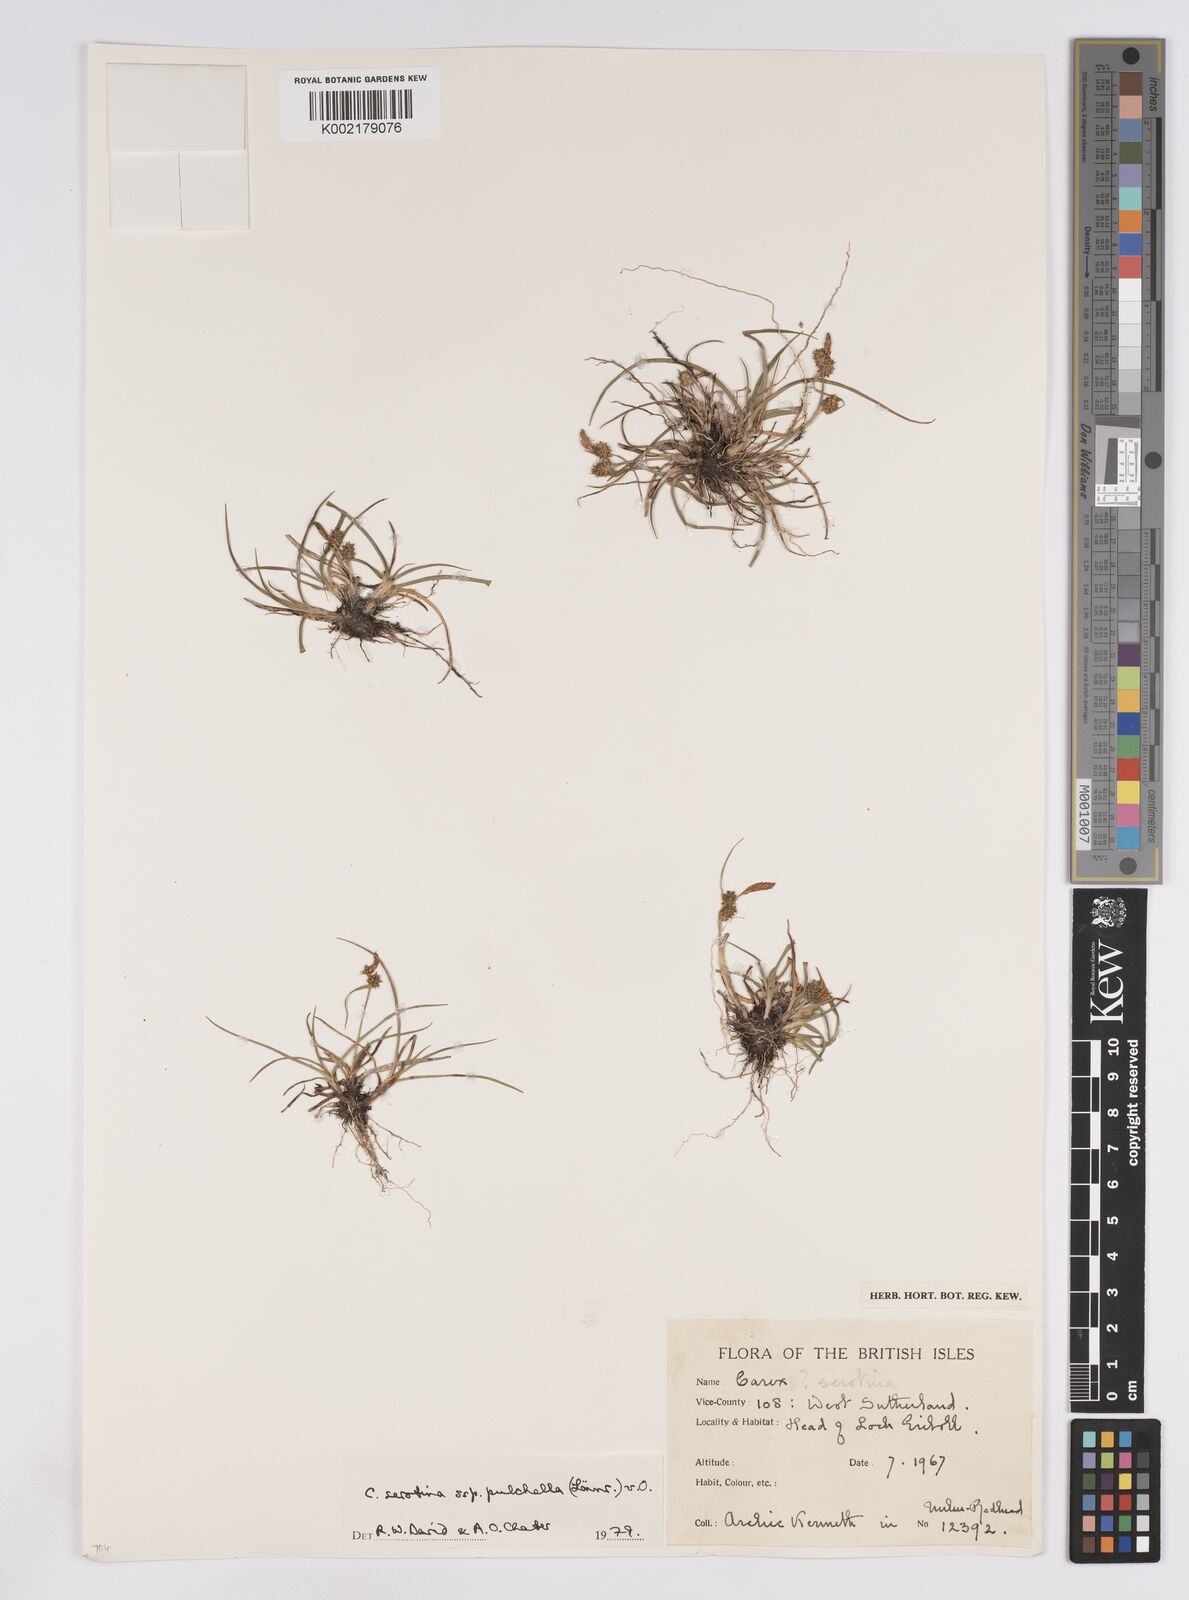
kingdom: Plantae
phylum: Tracheophyta
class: Liliopsida
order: Poales
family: Cyperaceae
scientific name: Cyperaceae
